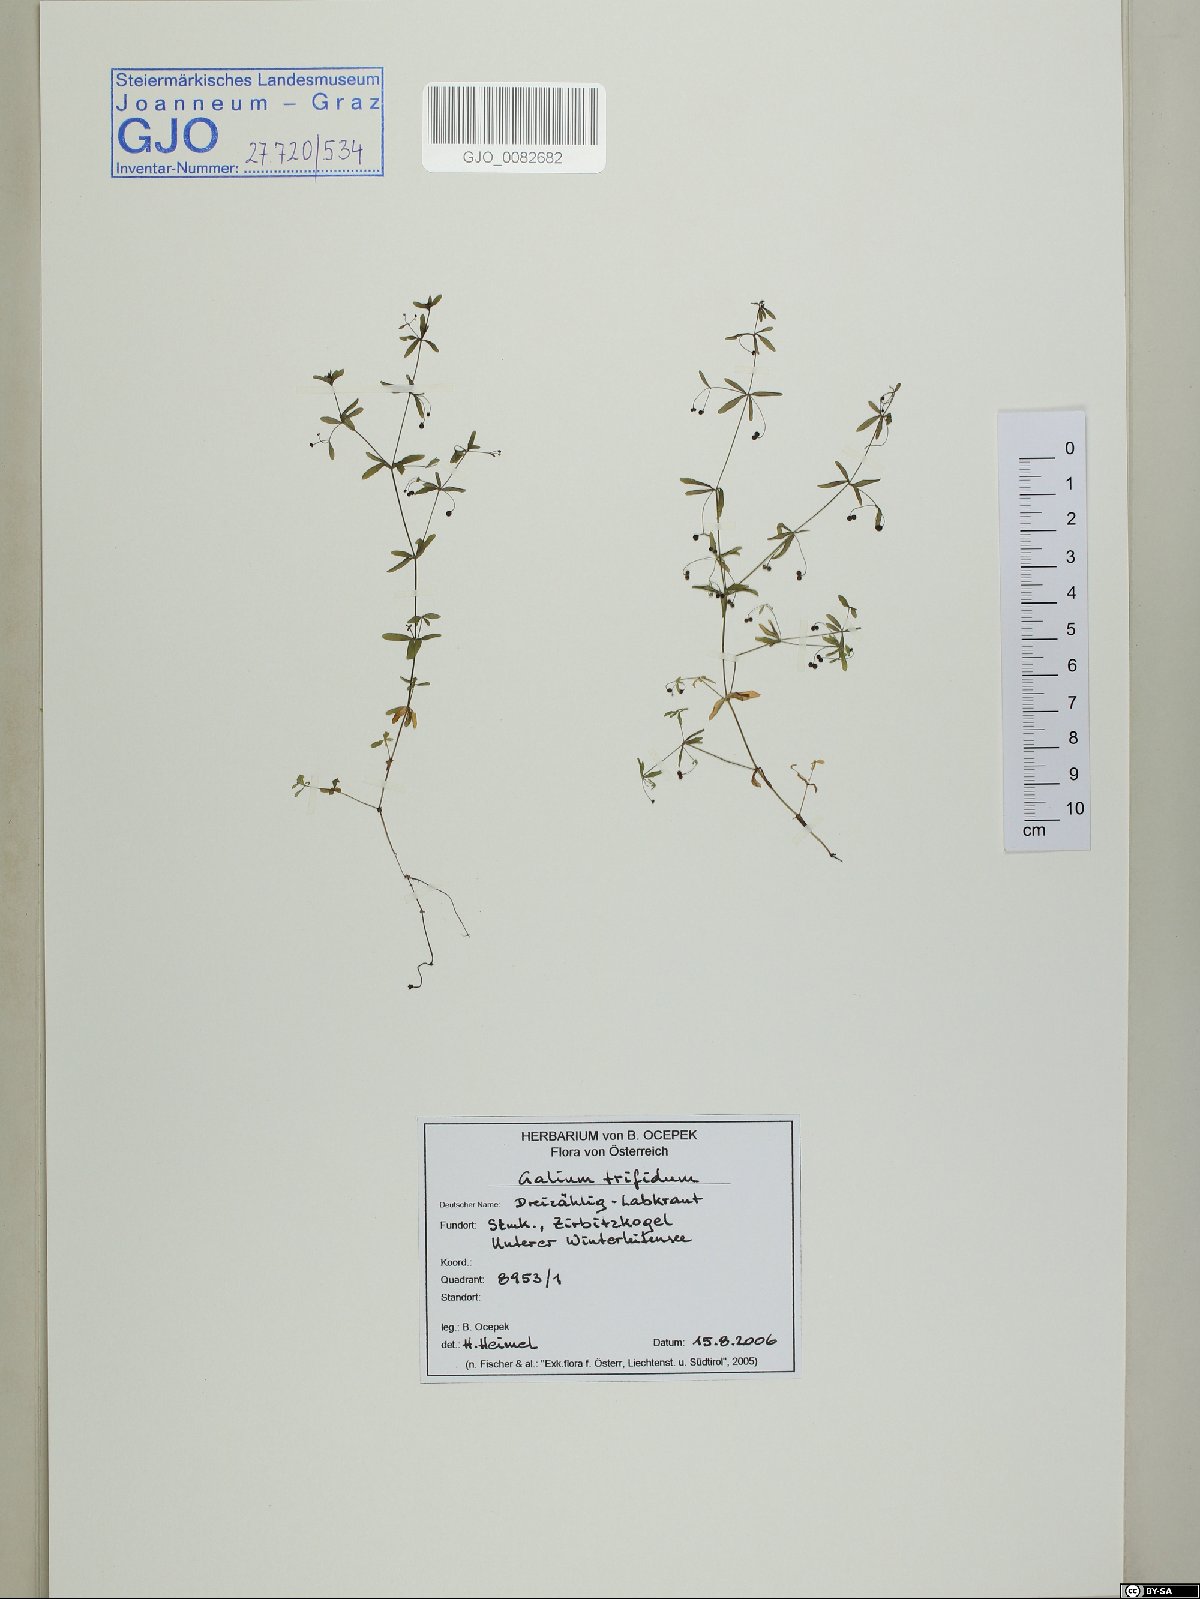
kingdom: Plantae
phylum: Tracheophyta
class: Magnoliopsida
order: Gentianales
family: Rubiaceae
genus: Galium
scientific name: Galium trifidum
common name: Small bedstraw
